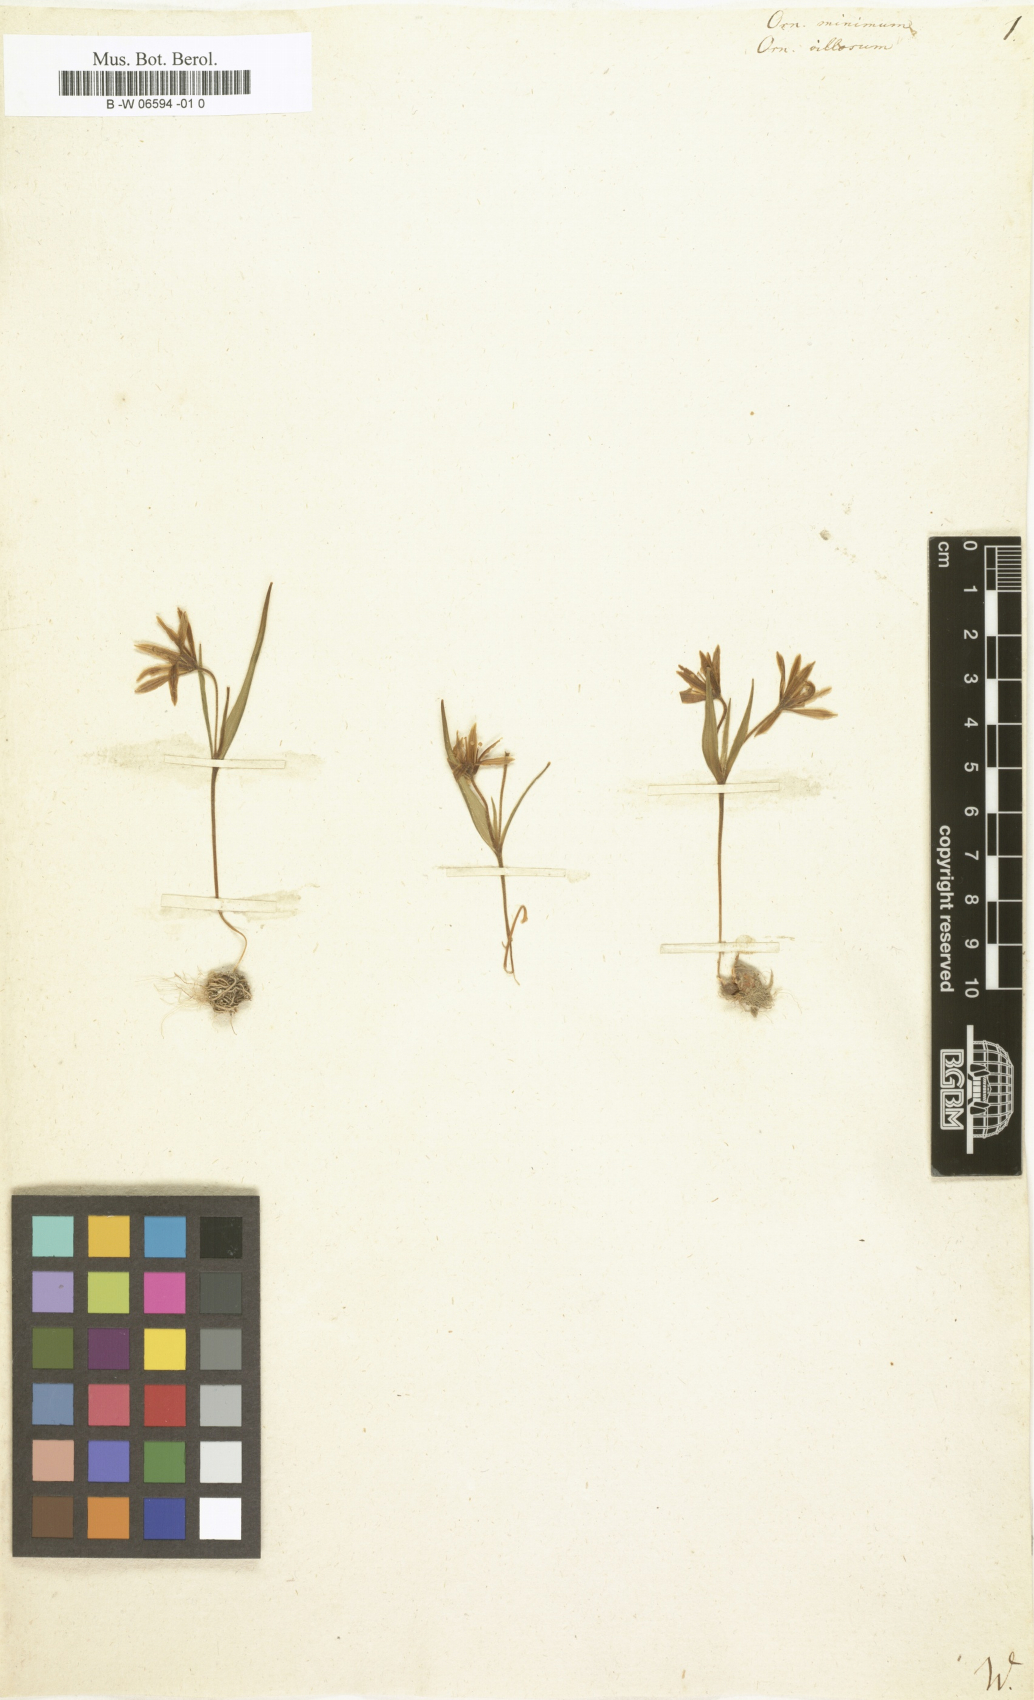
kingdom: Plantae
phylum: Tracheophyta
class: Liliopsida
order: Liliales
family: Liliaceae
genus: Gagea
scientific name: Gagea minima
